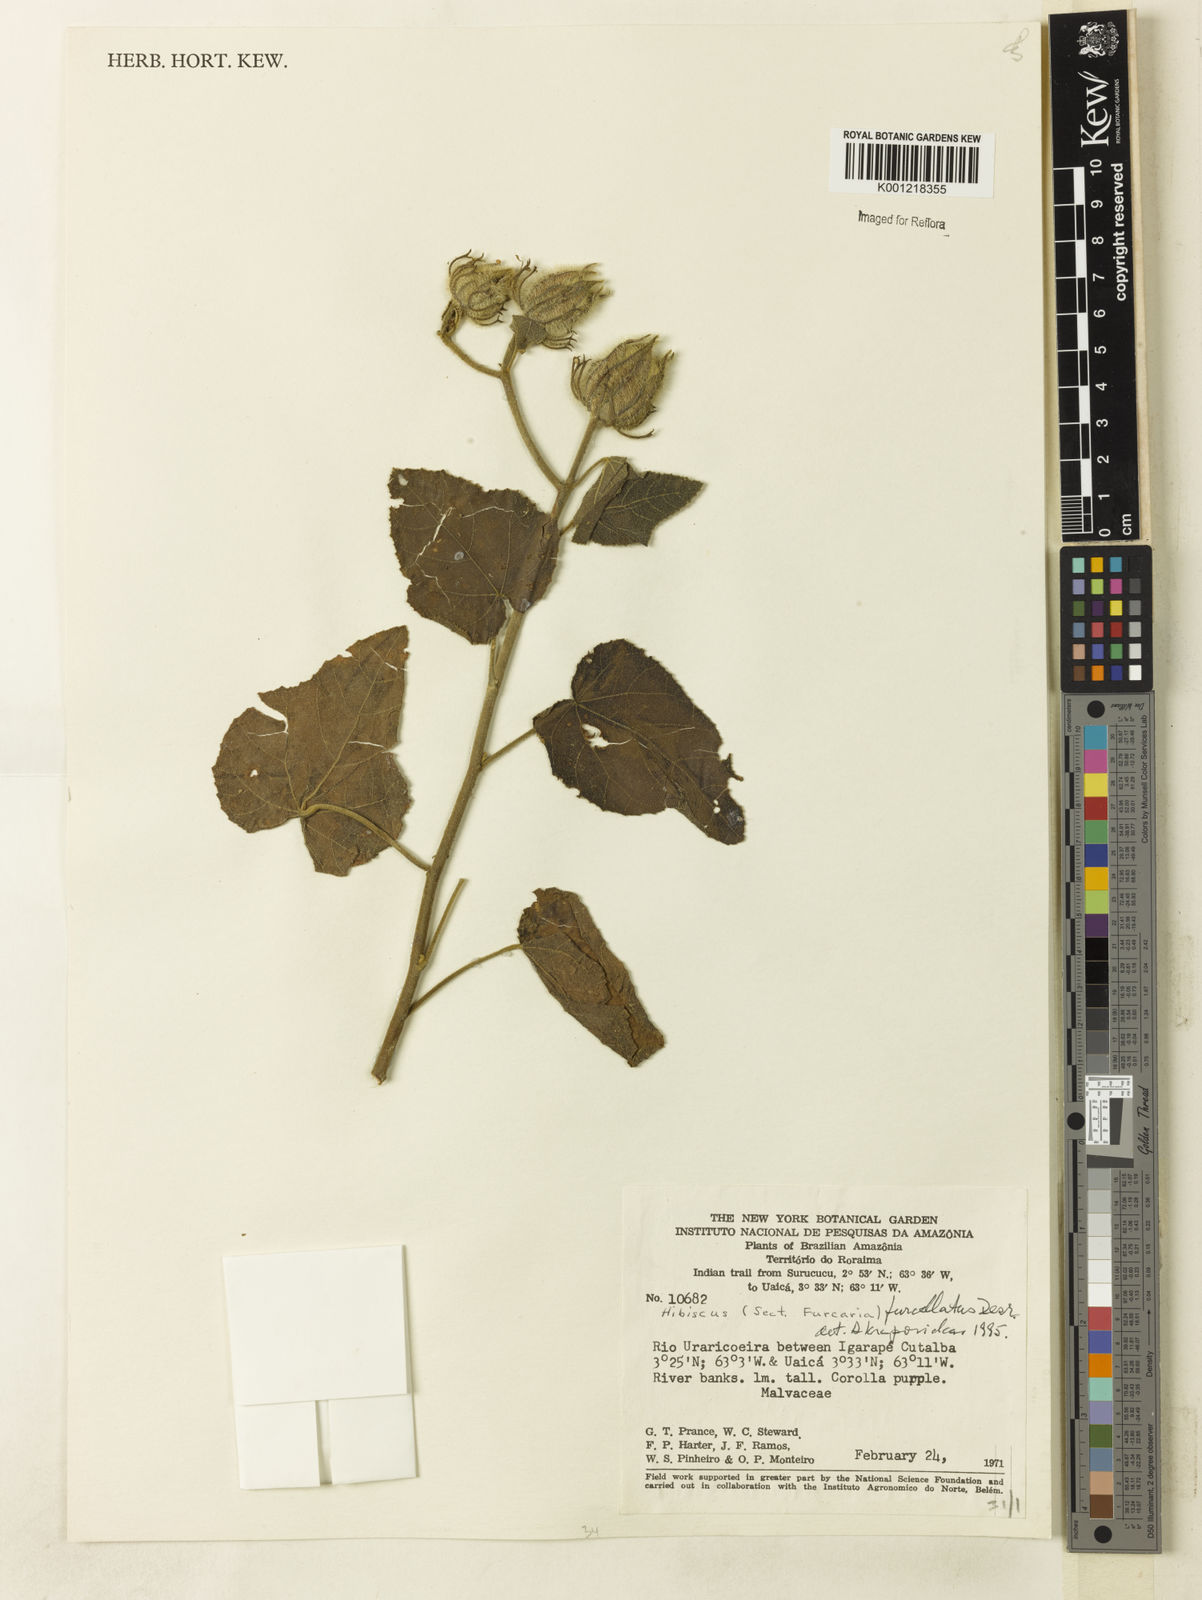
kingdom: Plantae
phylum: Tracheophyta
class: Magnoliopsida
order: Malvales
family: Malvaceae
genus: Hibiscus
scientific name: Hibiscus furcellatus
